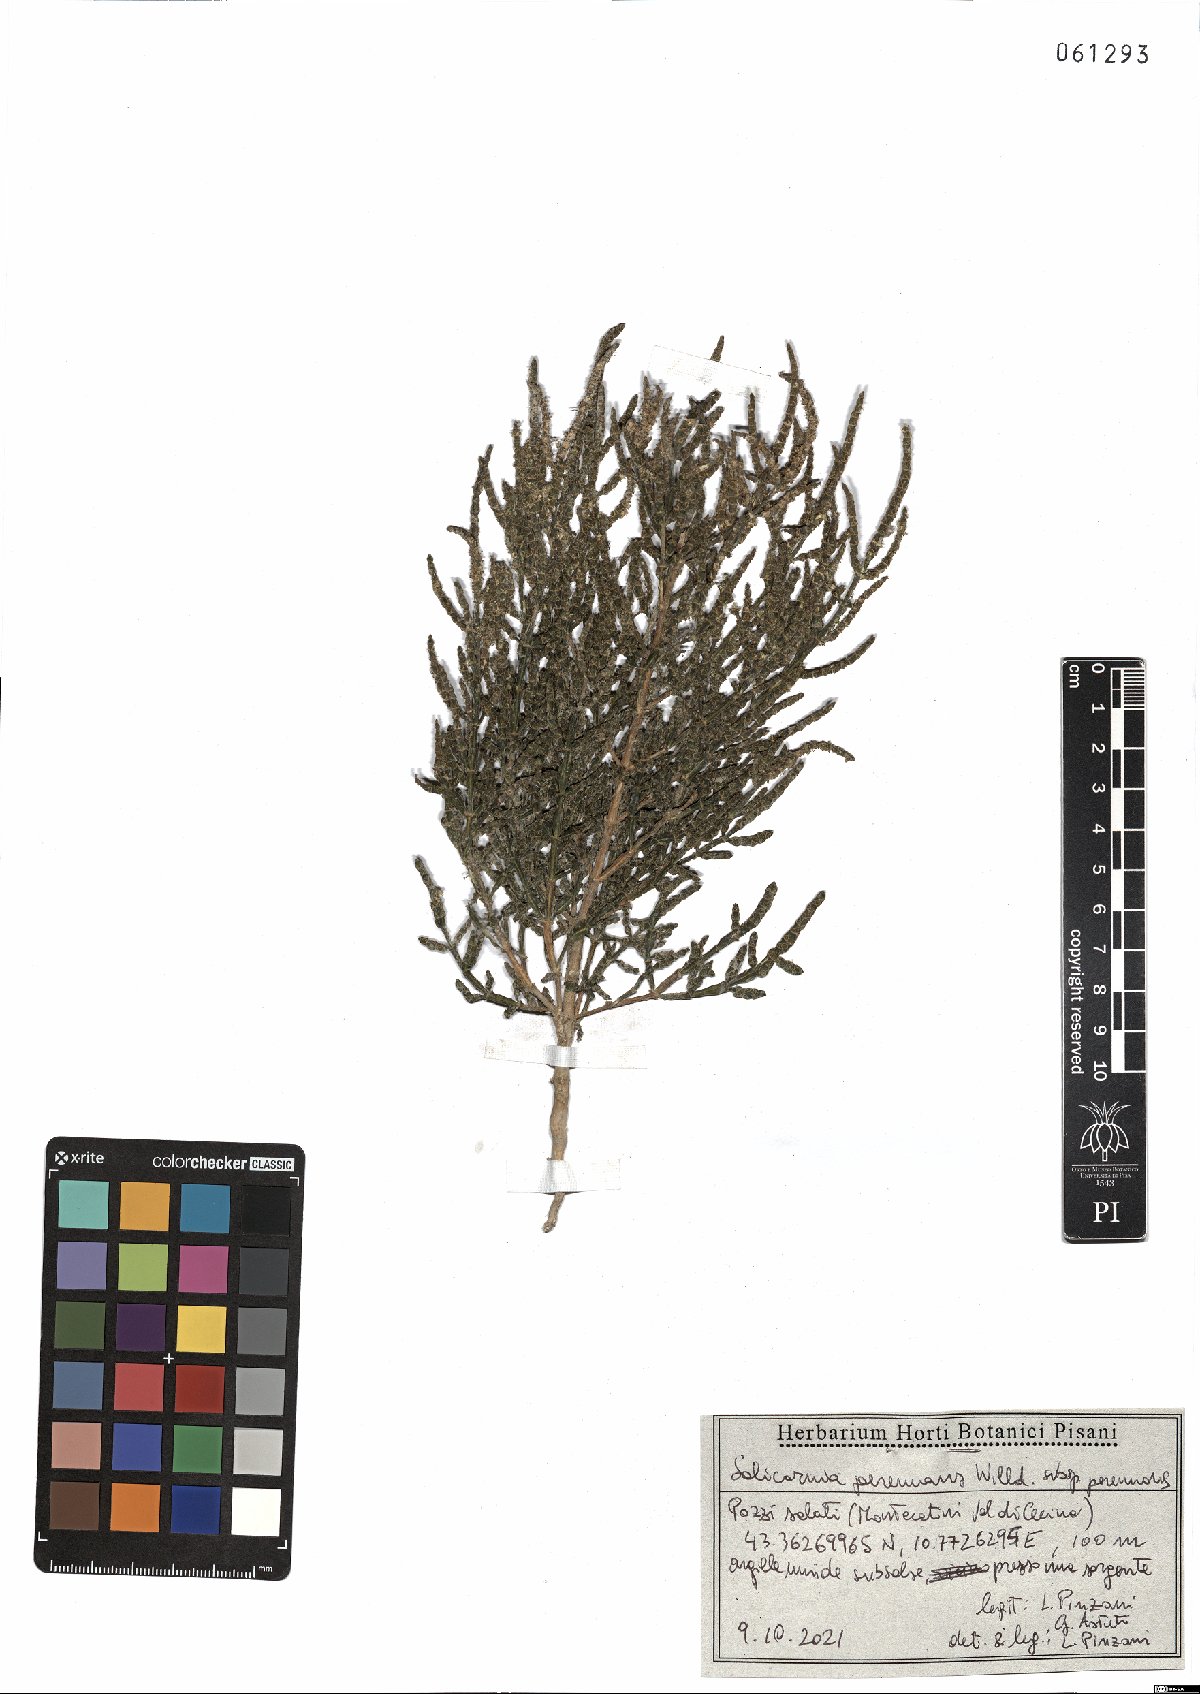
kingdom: Plantae
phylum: Tracheophyta
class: Magnoliopsida
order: Caryophyllales
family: Amaranthaceae
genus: Salicornia
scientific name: Salicornia perennans
